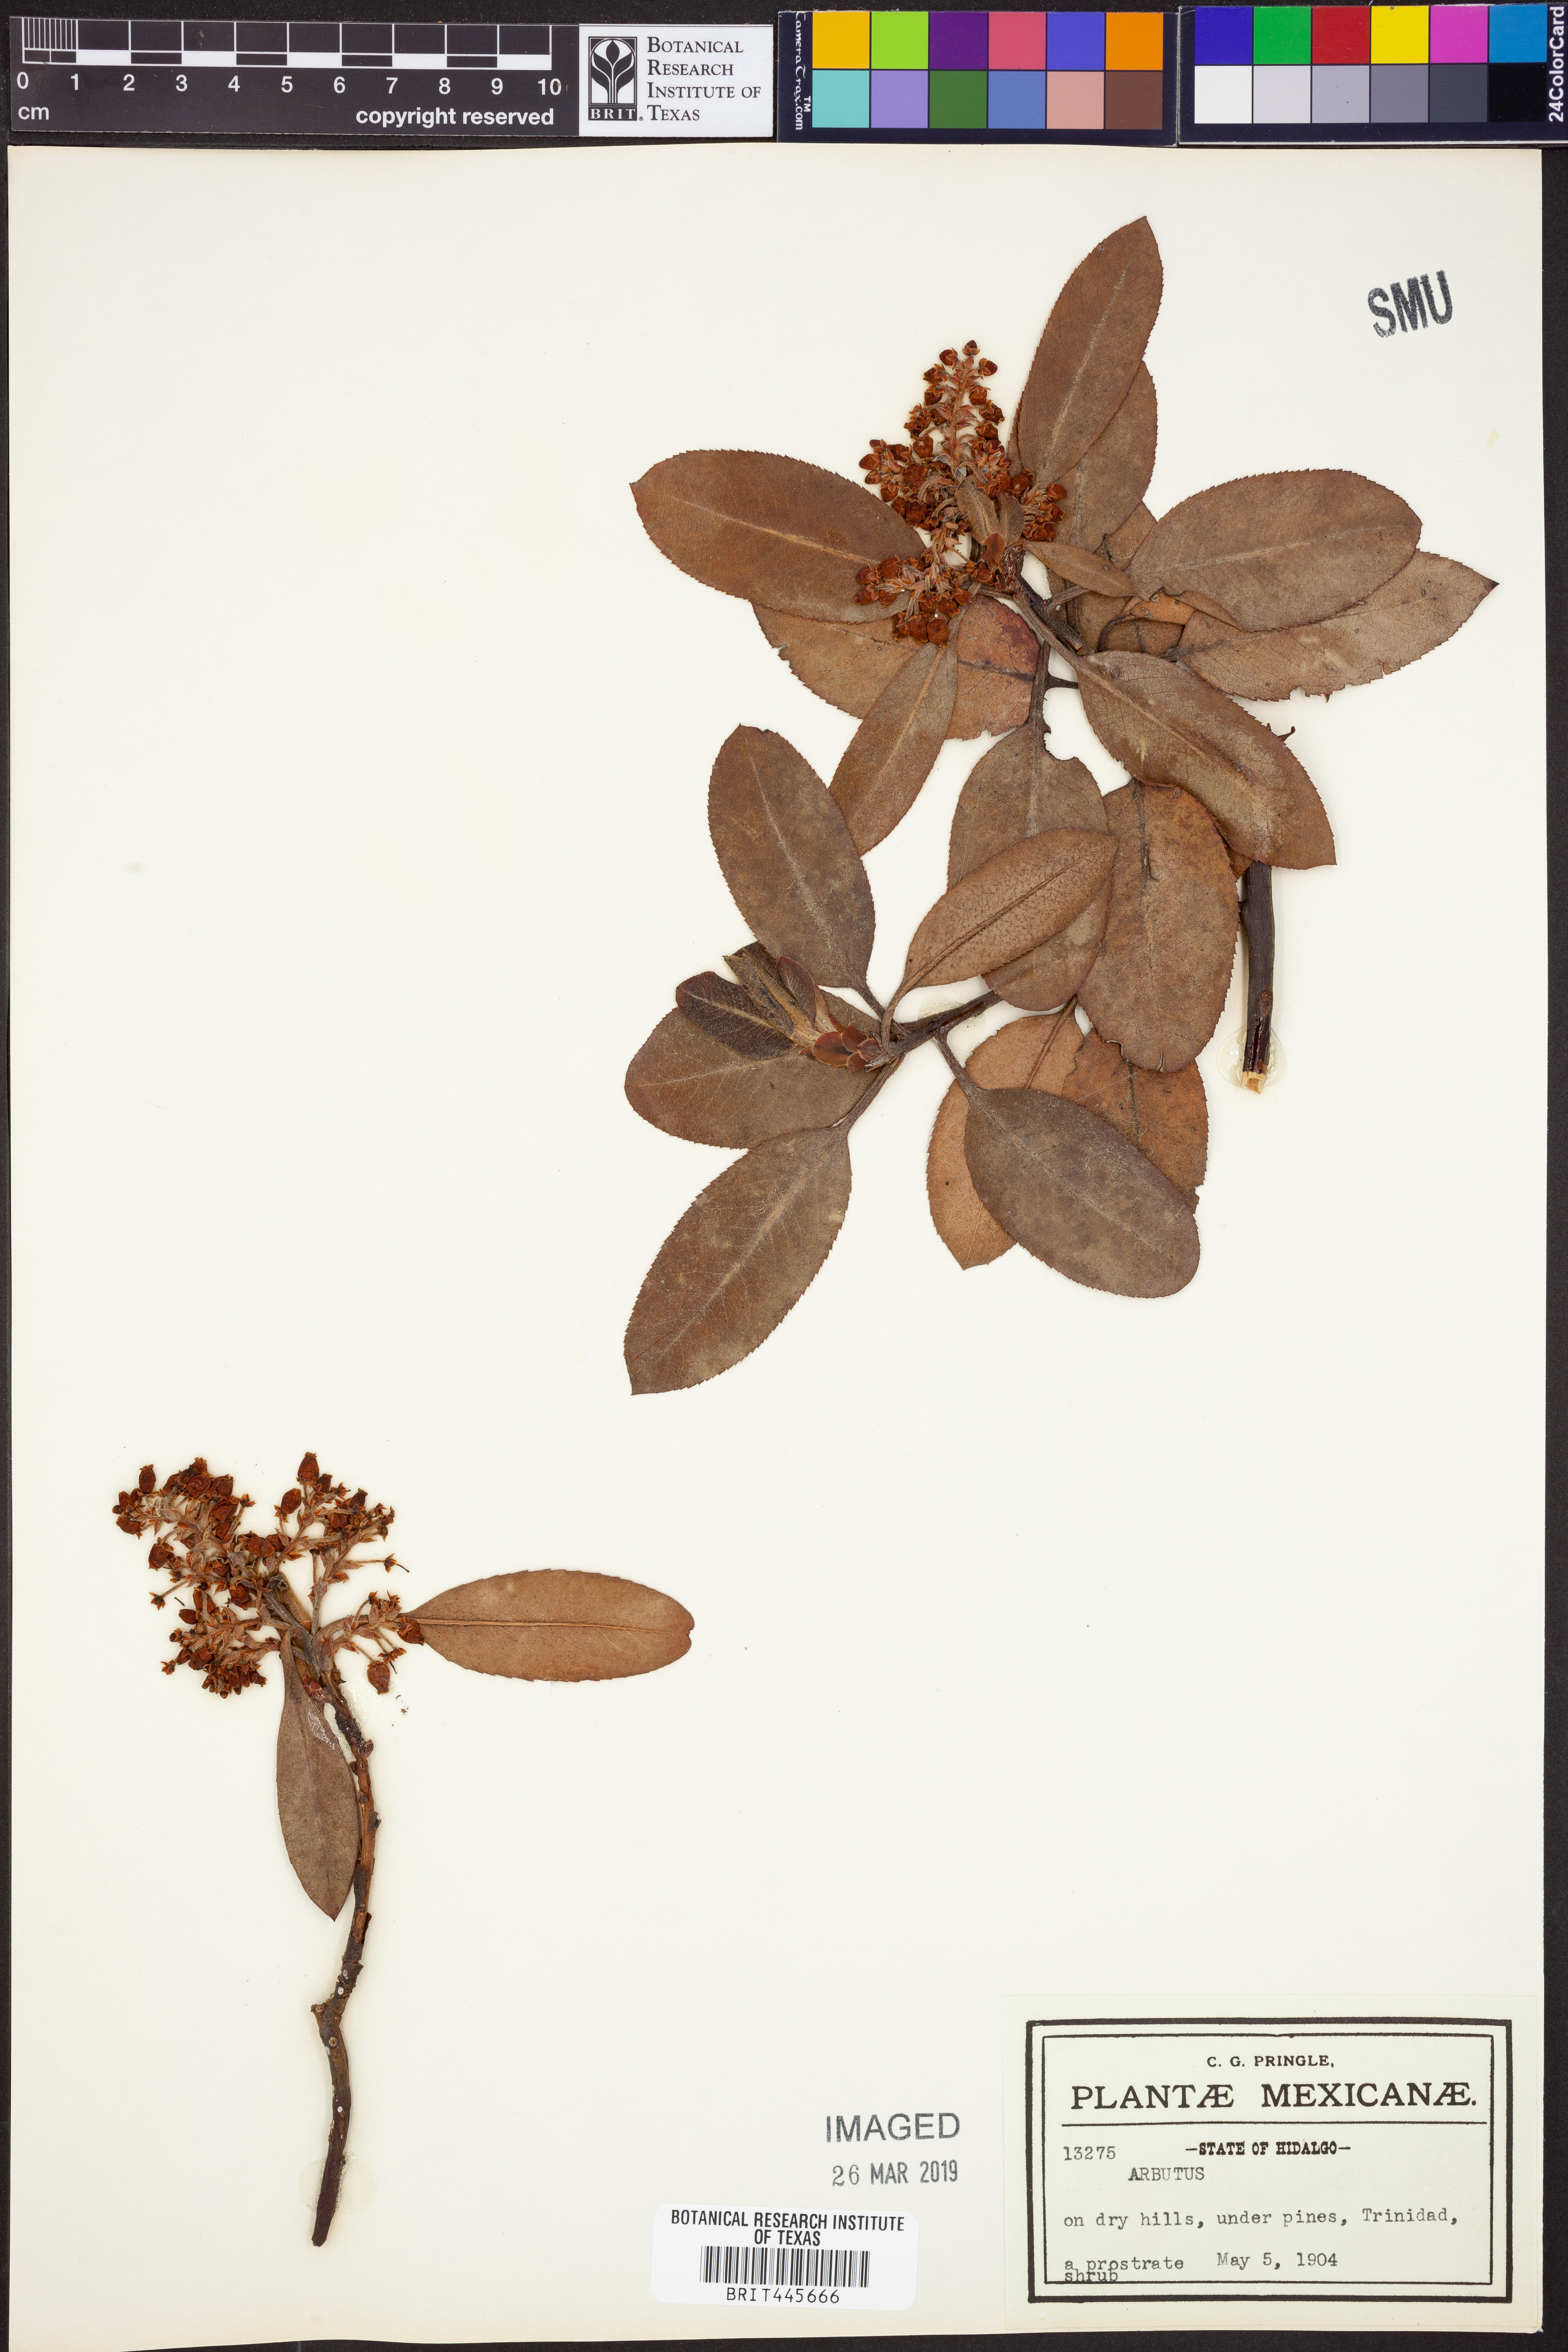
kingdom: Plantae
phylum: Tracheophyta
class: Magnoliopsida
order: Ericales
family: Ericaceae
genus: Arbutus
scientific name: Arbutus
